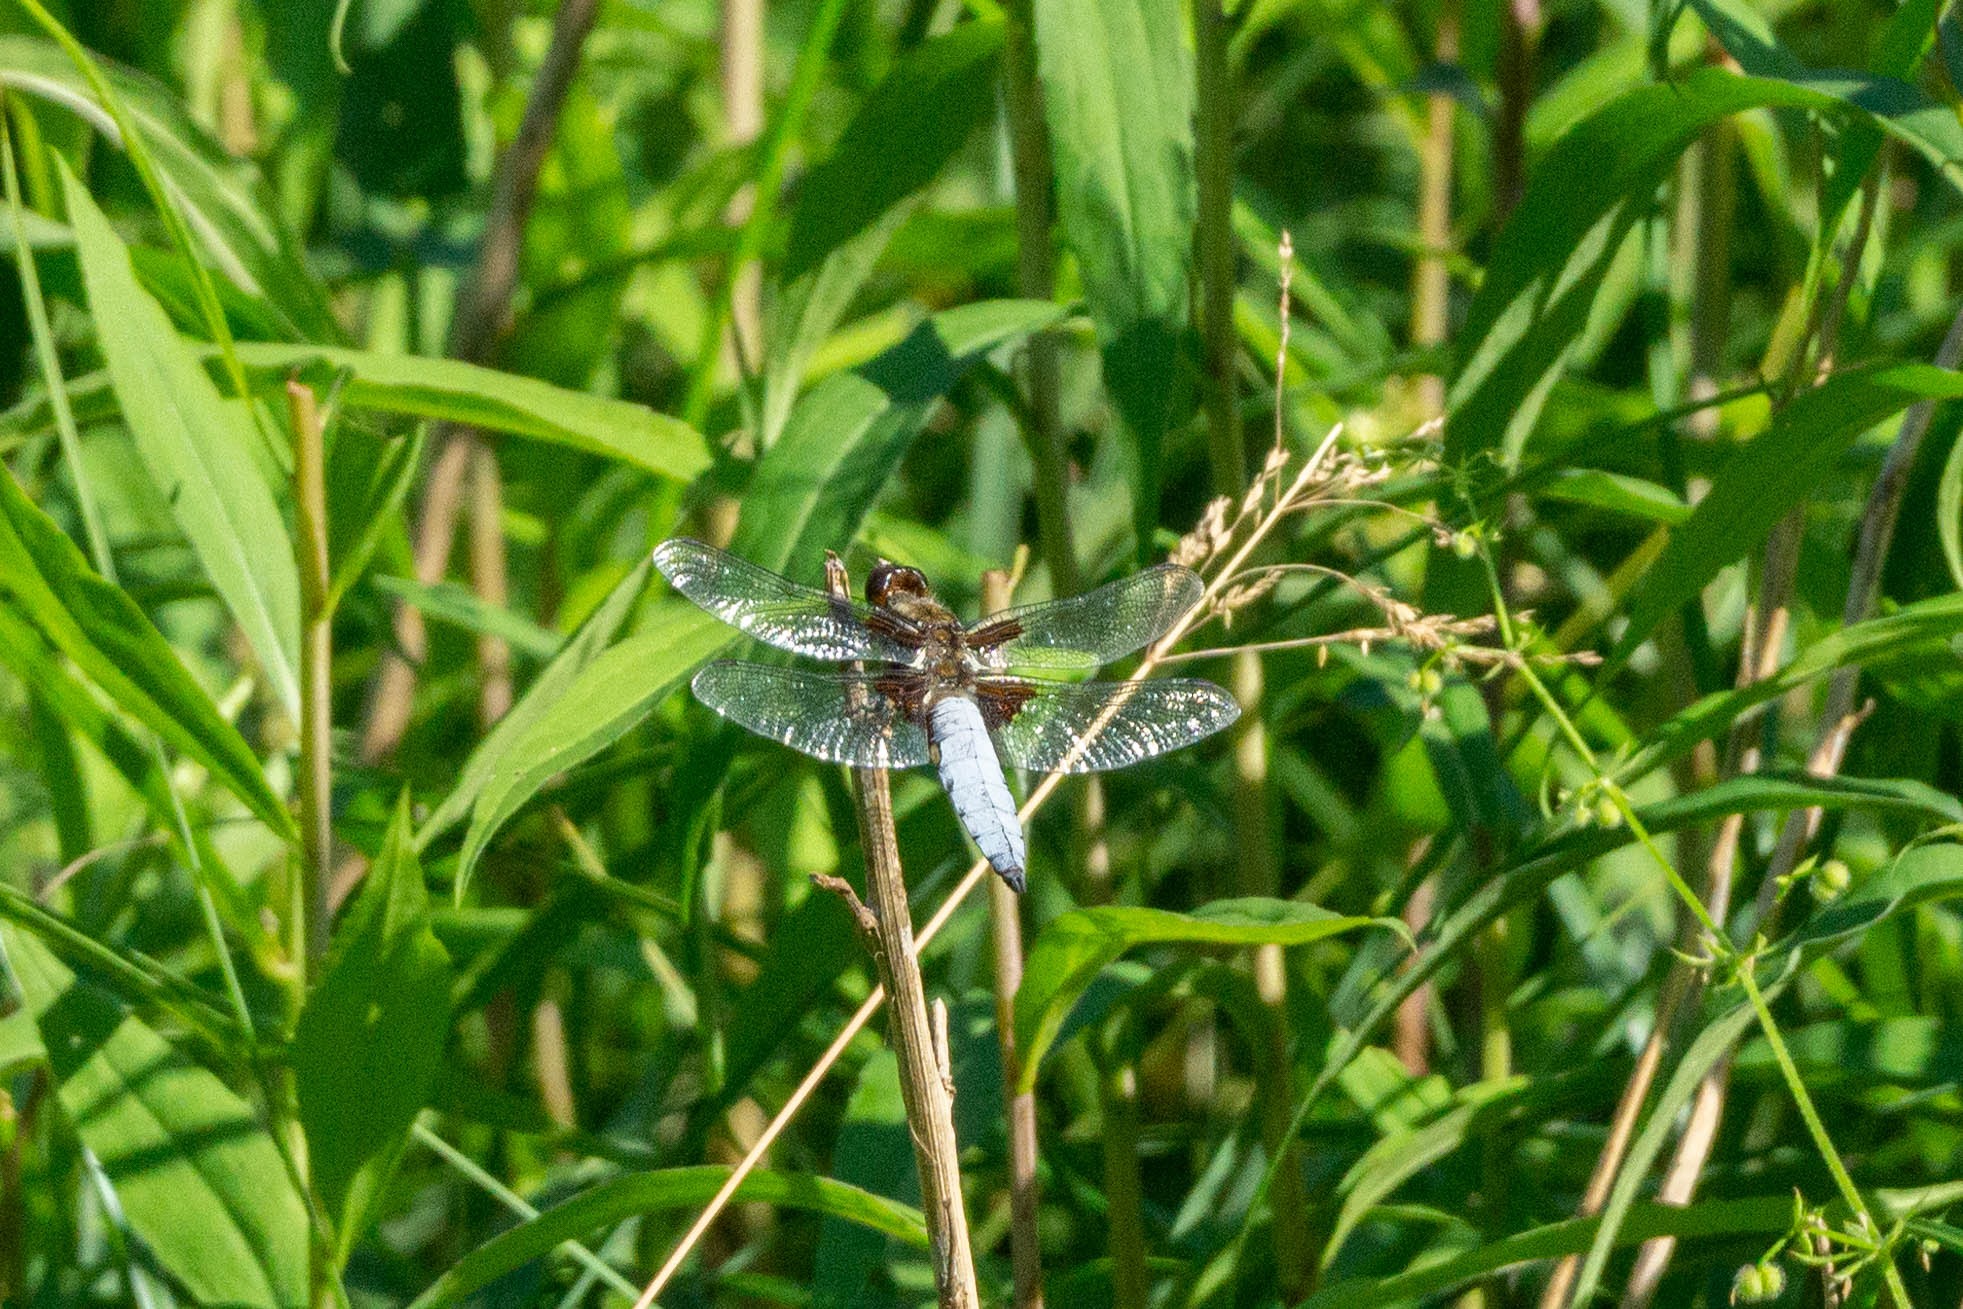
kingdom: Animalia
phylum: Arthropoda
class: Insecta
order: Odonata
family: Libellulidae
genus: Libellula
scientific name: Libellula depressa
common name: Blå libel
